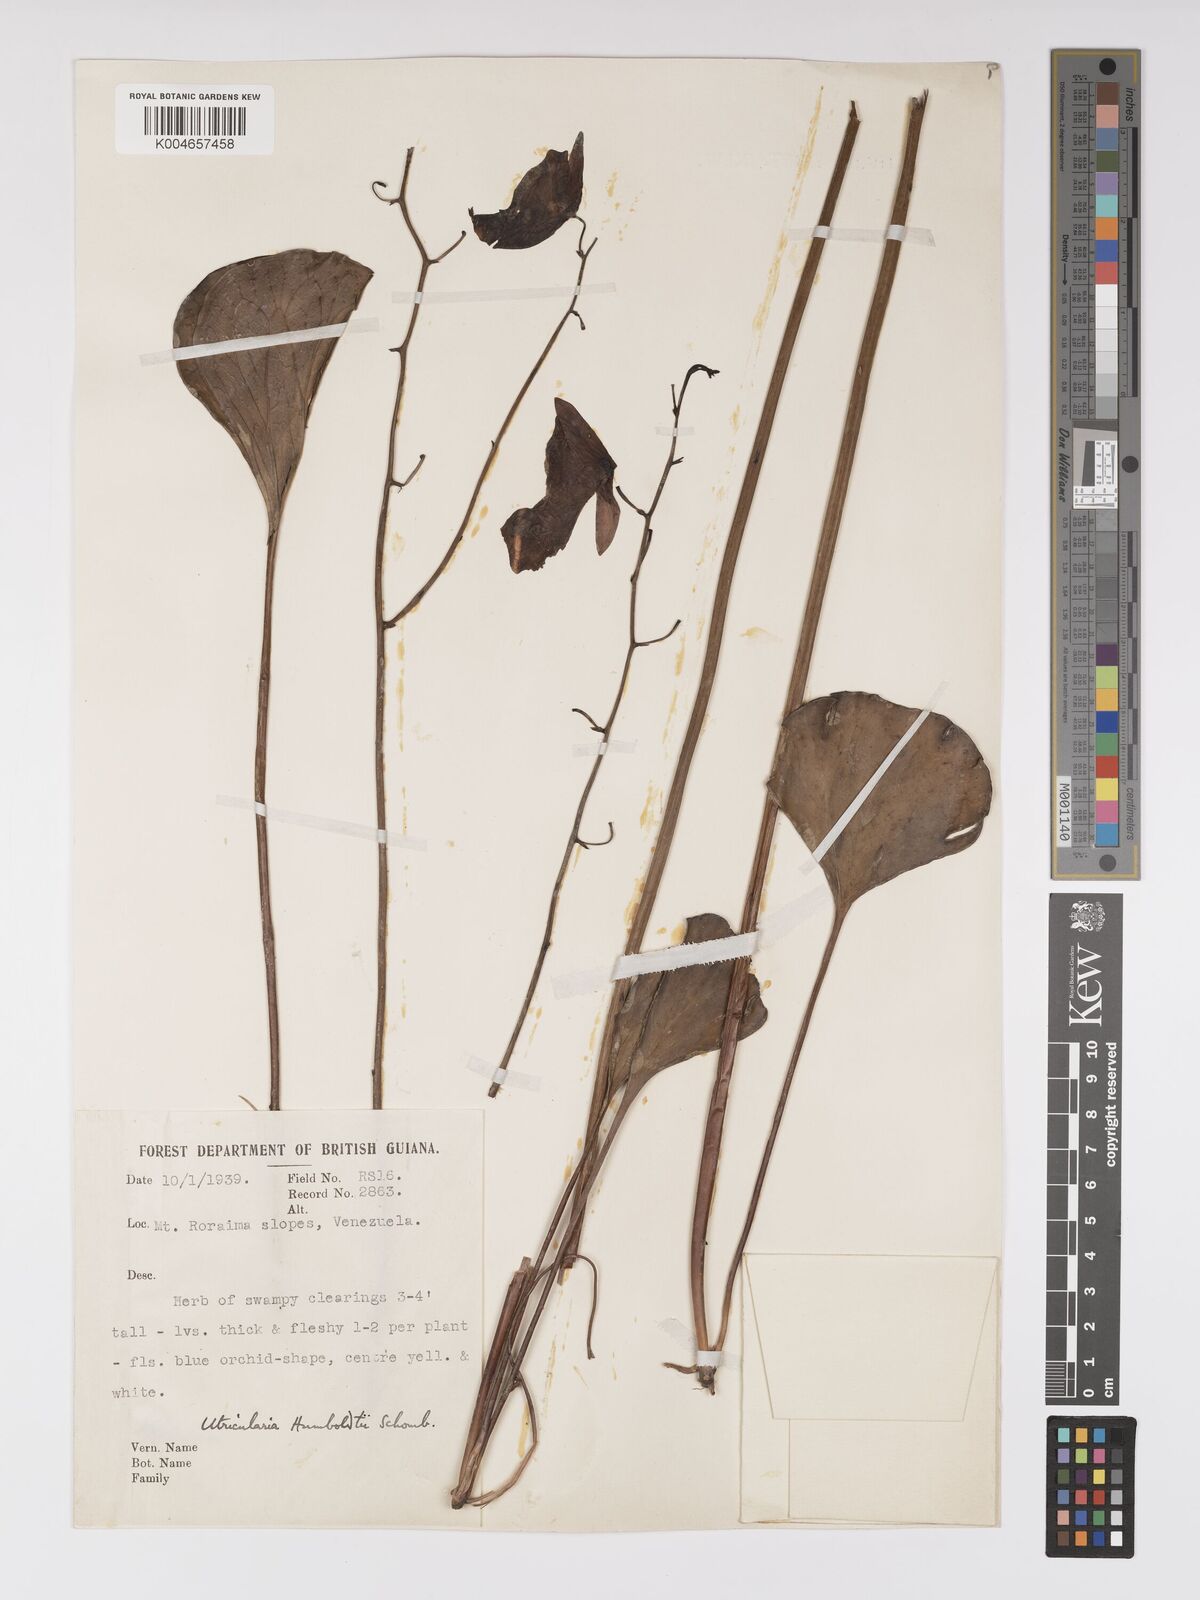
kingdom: Plantae
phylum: Tracheophyta
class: Magnoliopsida
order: Lamiales
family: Lentibulariaceae
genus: Utricularia
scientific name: Utricularia humboldtii
